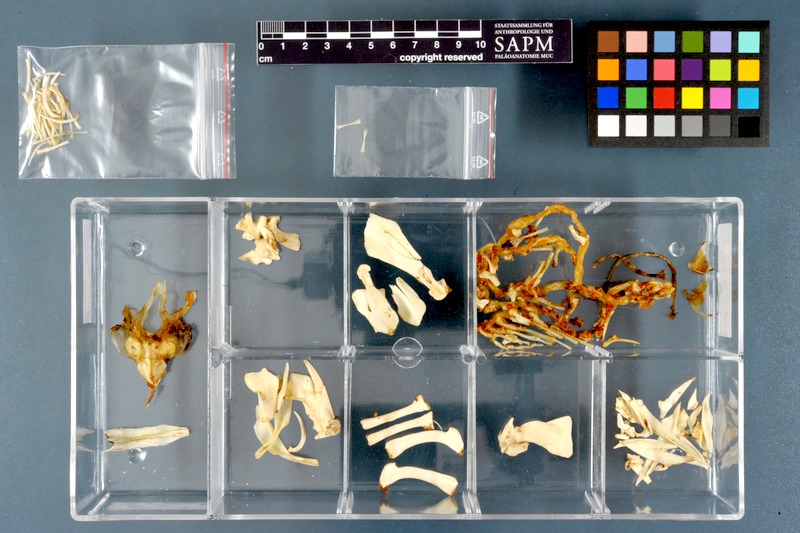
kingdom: Animalia
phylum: Chordata
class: Dipneusti
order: Ceratodontiformes
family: Protopteridae
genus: Protopterus
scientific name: Protopterus aethiopicus
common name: Marbled lungfish
